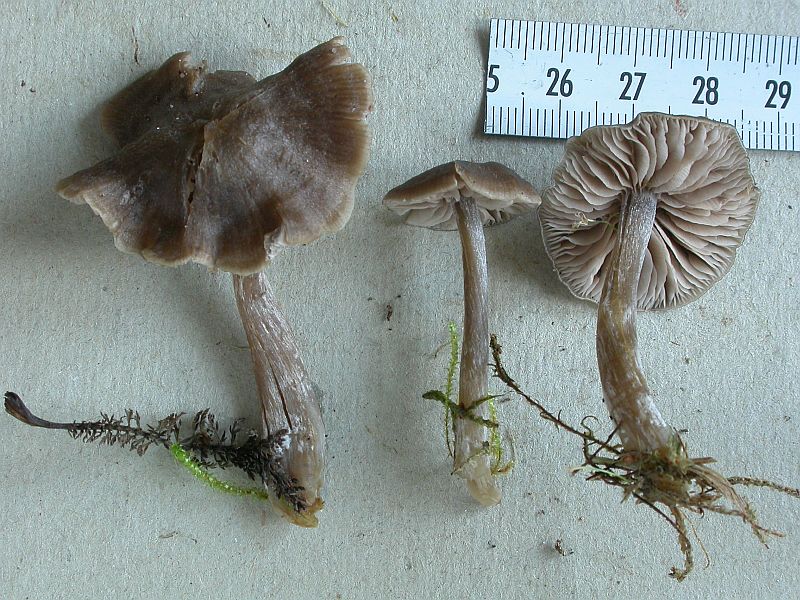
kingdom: Fungi
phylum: Basidiomycota
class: Agaricomycetes
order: Agaricales
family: Entolomataceae
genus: Entoloma
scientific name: Entoloma
